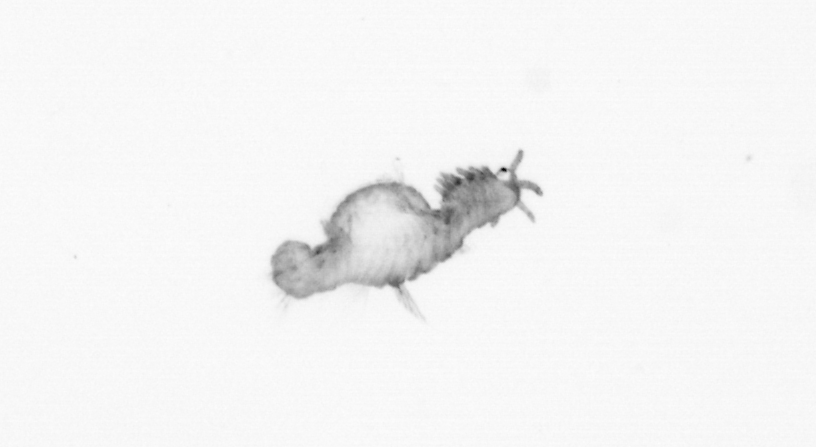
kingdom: Animalia
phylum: Annelida
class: Polychaeta
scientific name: Polychaeta
